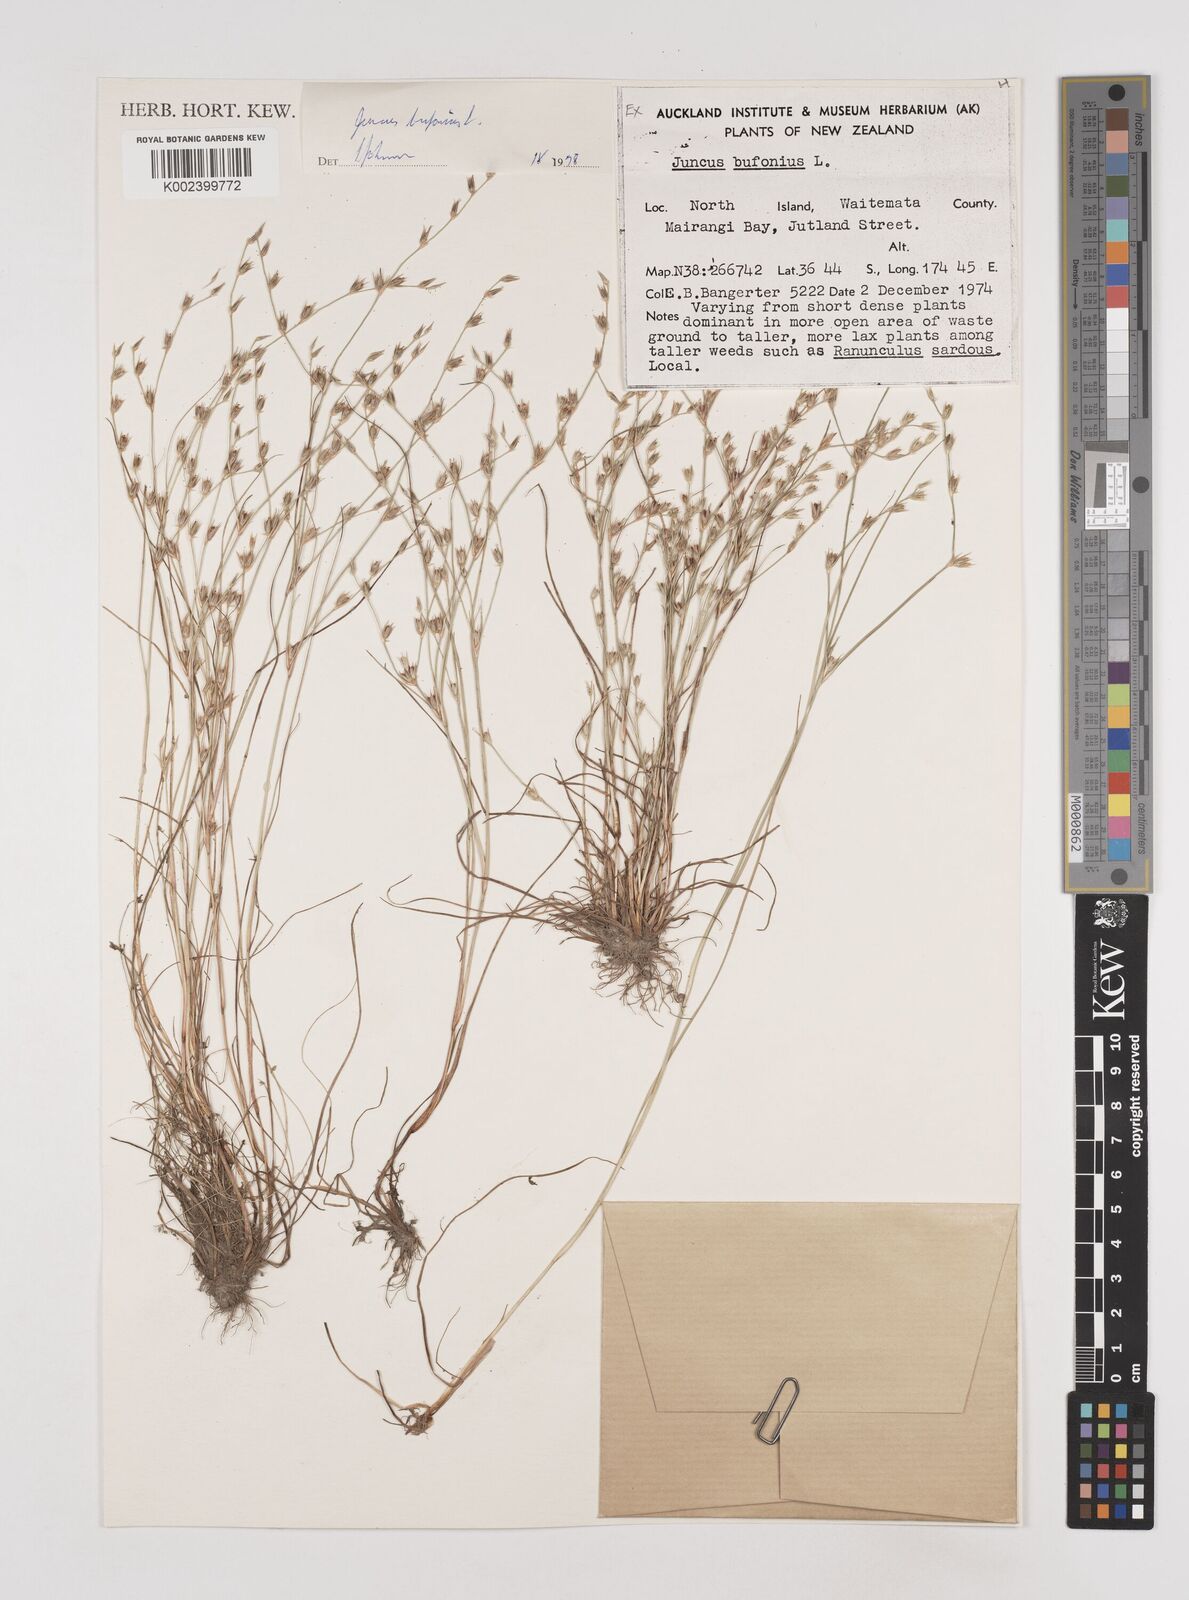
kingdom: Plantae
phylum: Tracheophyta
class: Liliopsida
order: Poales
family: Juncaceae
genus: Juncus
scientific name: Juncus bufonius
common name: Toad rush
